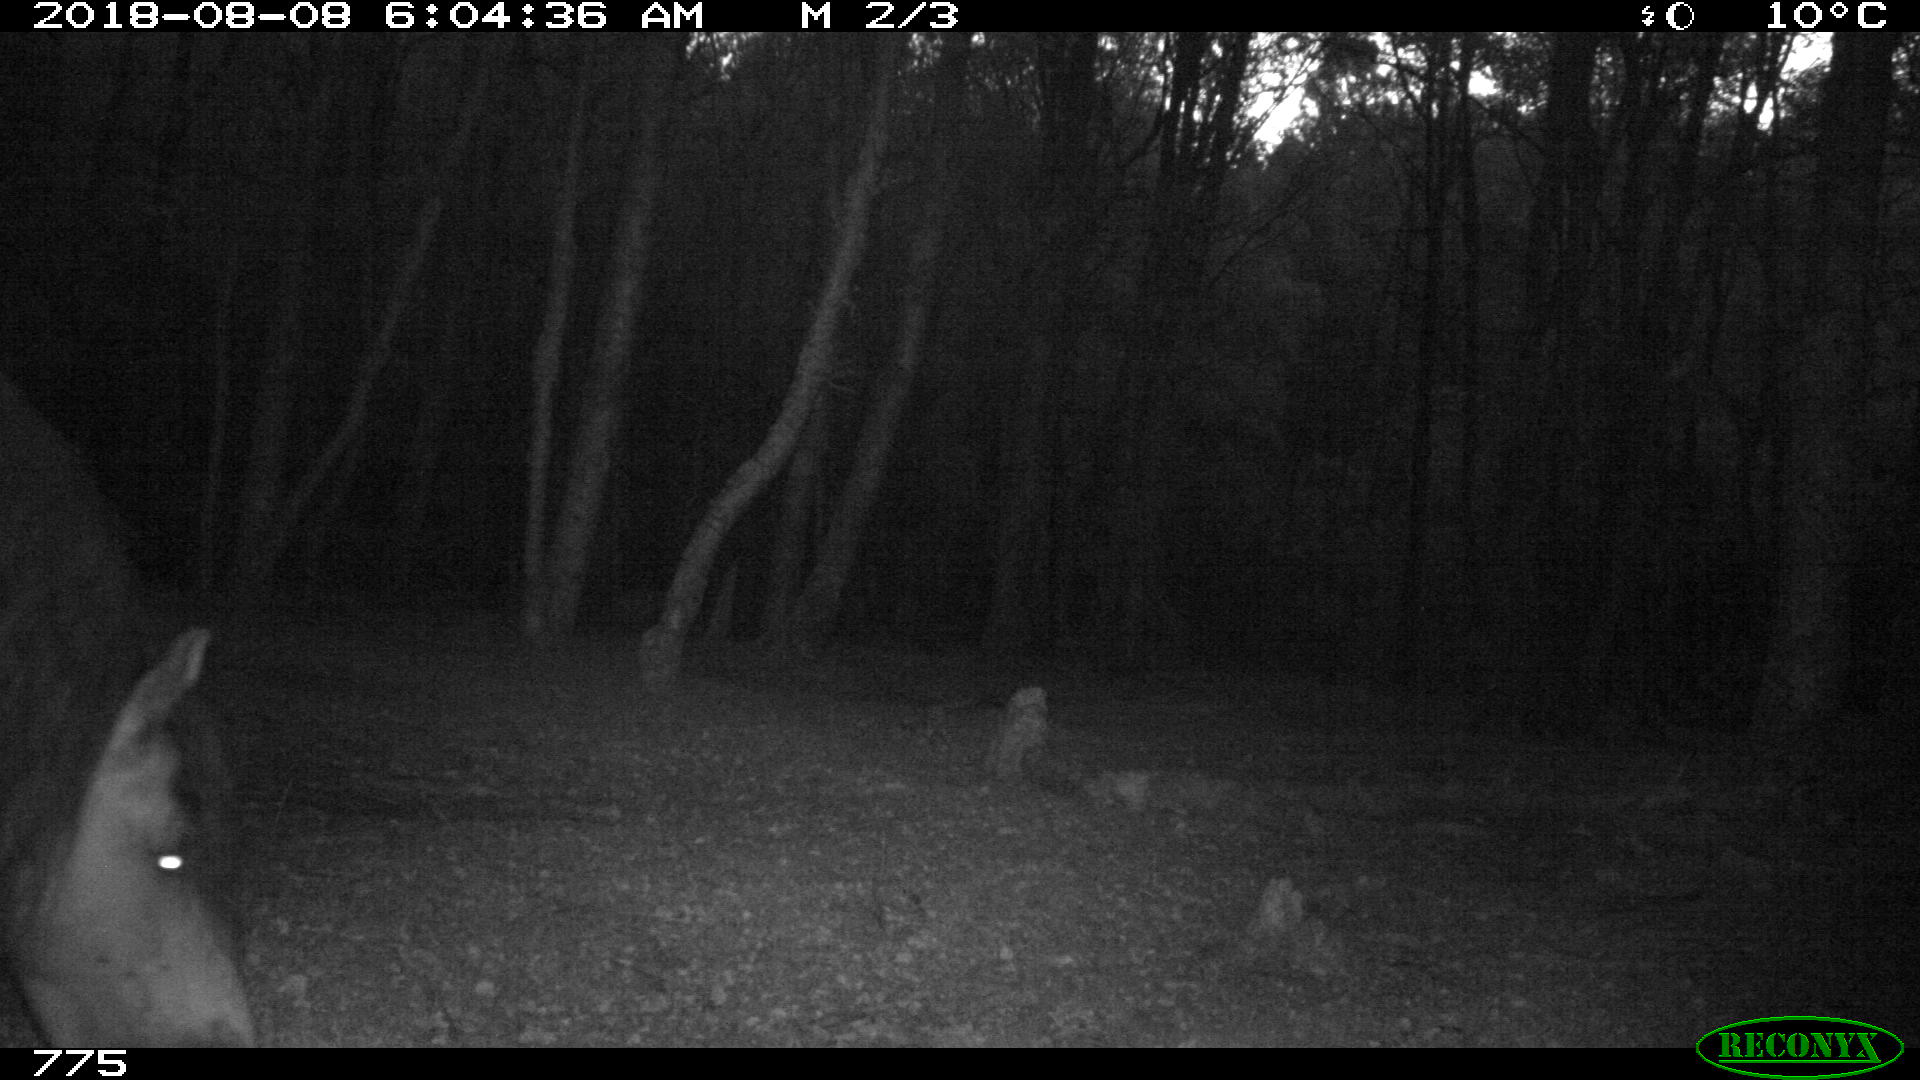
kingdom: Animalia
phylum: Chordata
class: Mammalia
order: Perissodactyla
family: Equidae
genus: Equus
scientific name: Equus caballus
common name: Horse
